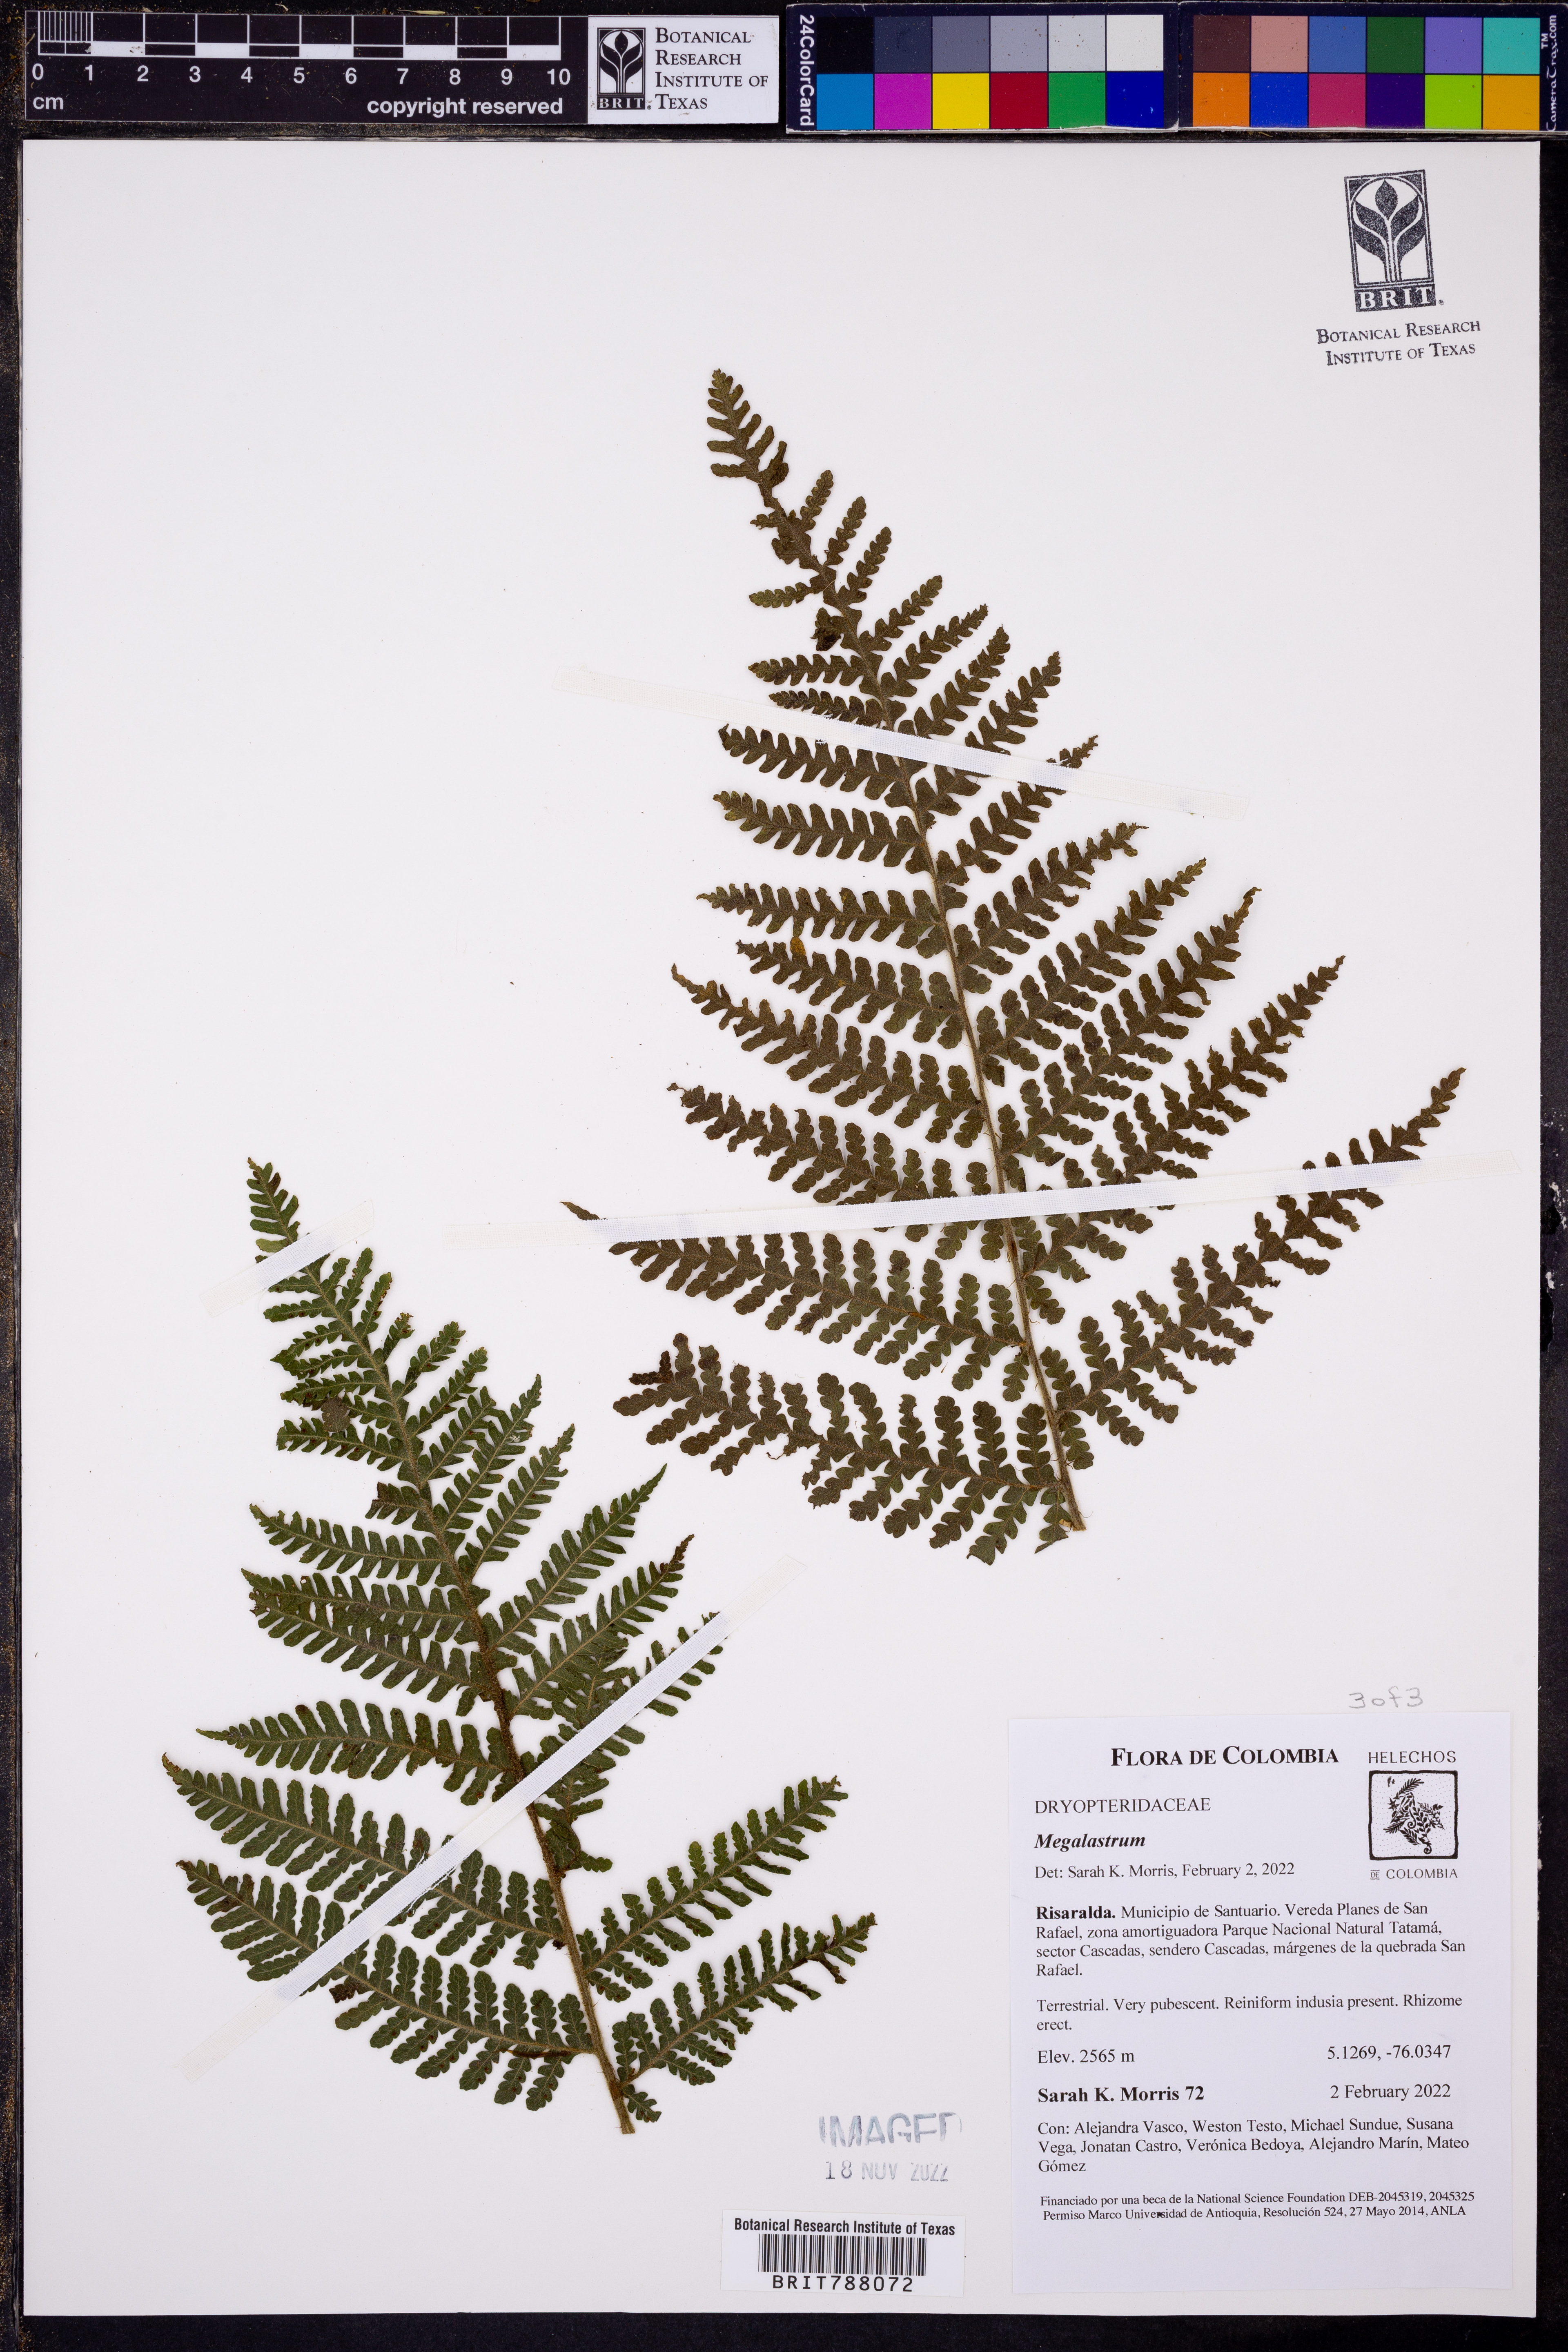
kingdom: Plantae
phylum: Tracheophyta
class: Polypodiopsida
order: Polypodiales
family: Dryopteridaceae
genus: Megalastrum
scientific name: Megalastrum
